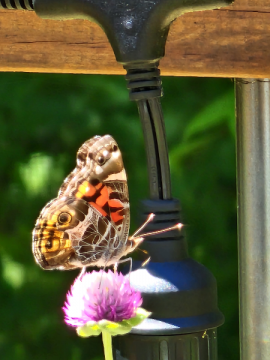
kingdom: Animalia
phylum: Arthropoda
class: Insecta
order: Lepidoptera
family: Nymphalidae
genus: Vanessa
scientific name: Vanessa virginiensis
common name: American Lady
